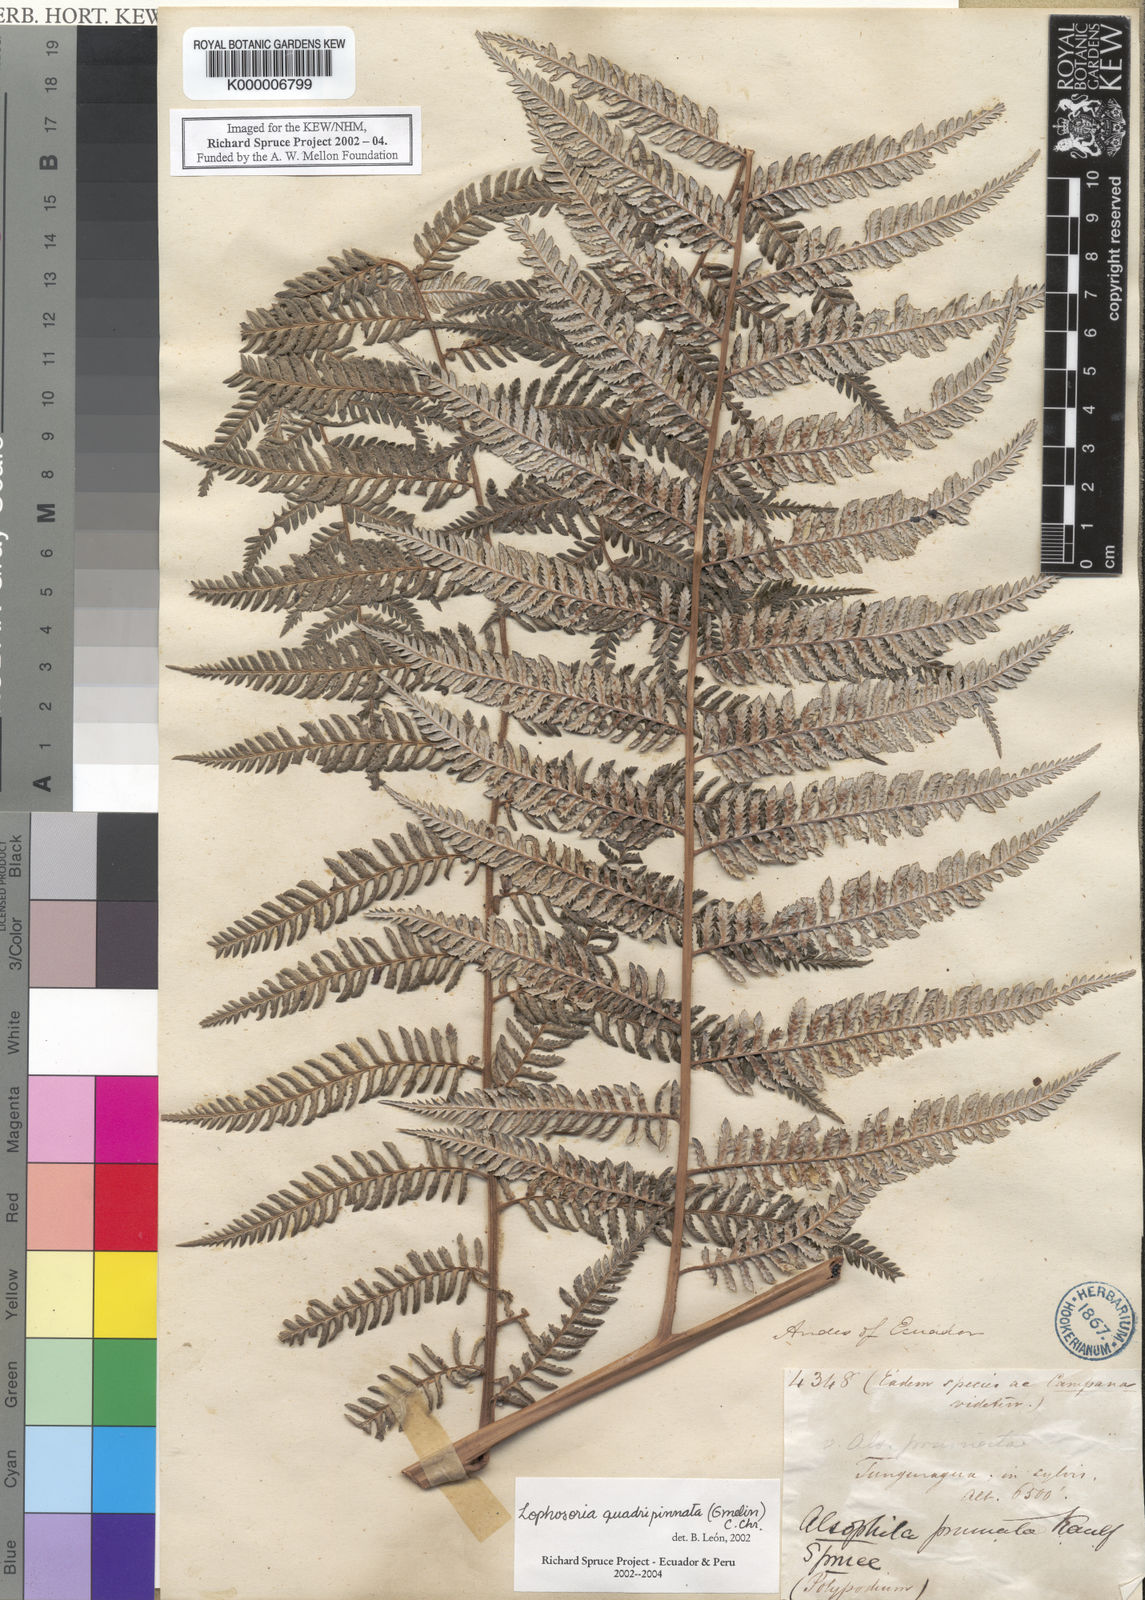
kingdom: Plantae
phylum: Tracheophyta
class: Polypodiopsida
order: Cyatheales
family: Dicksoniaceae
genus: Lophosoria
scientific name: Lophosoria quadripinnata
